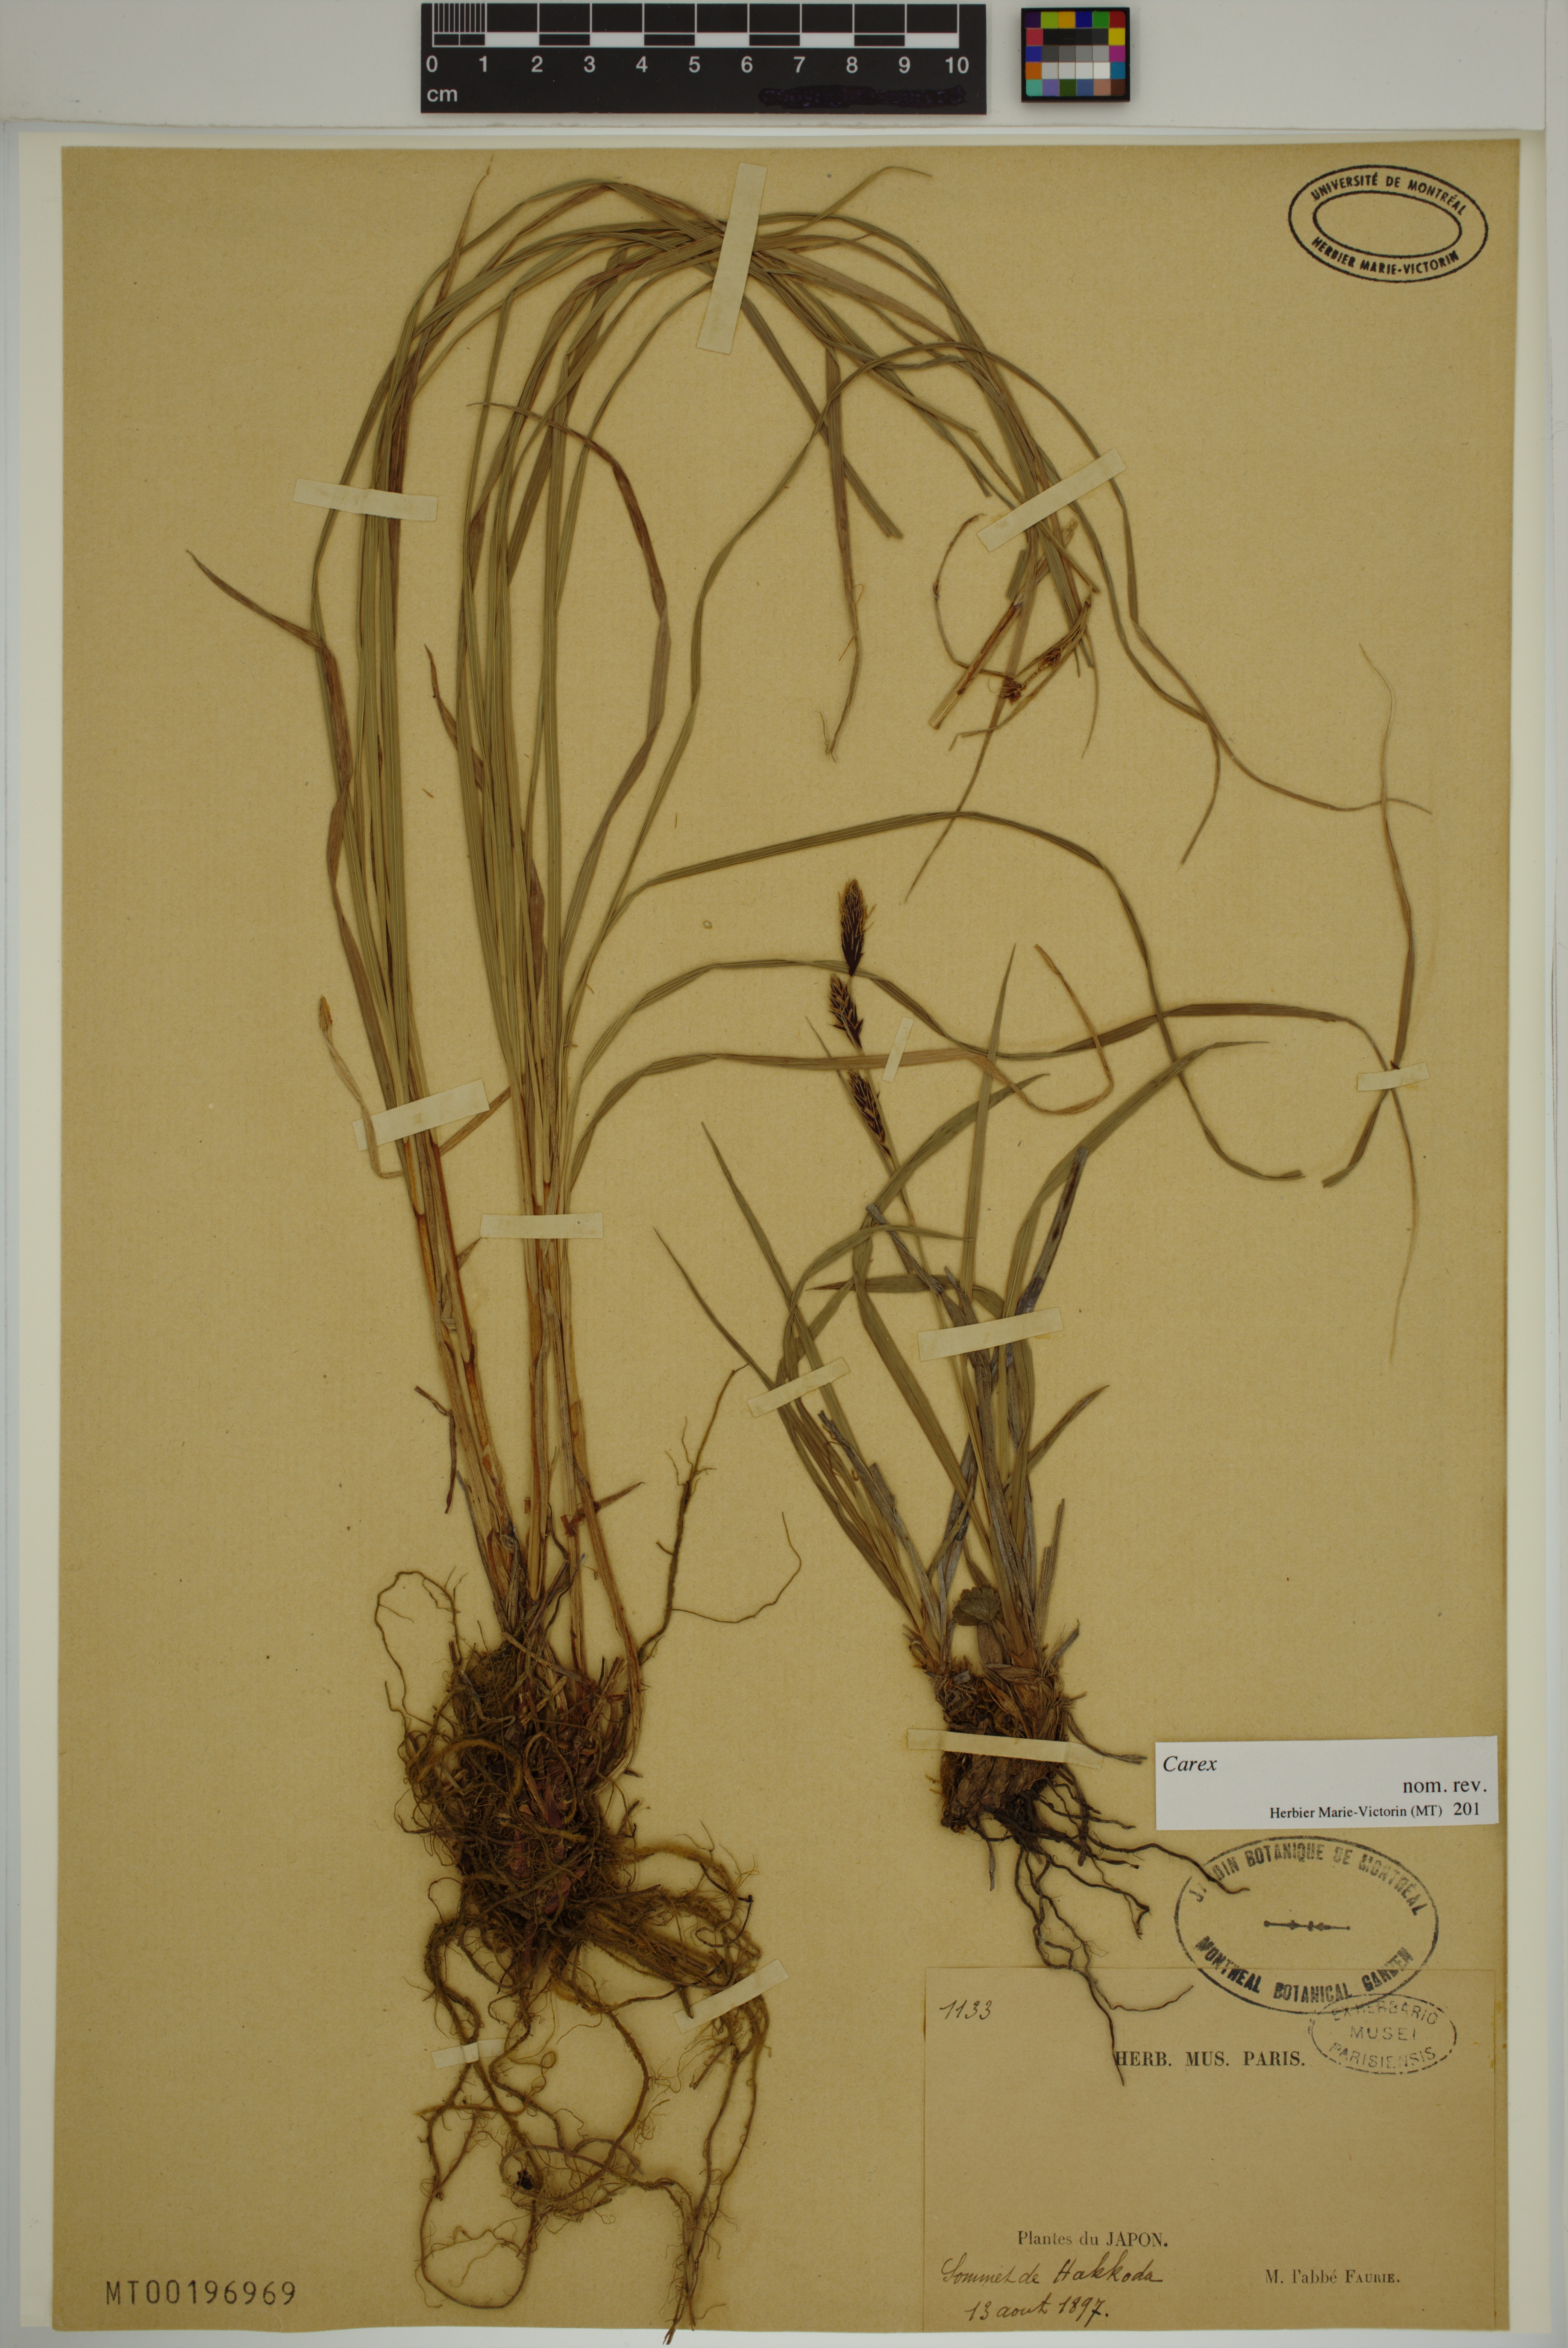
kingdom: Plantae
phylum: Tracheophyta
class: Liliopsida
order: Poales
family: Cyperaceae
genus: Carex
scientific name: Carex
